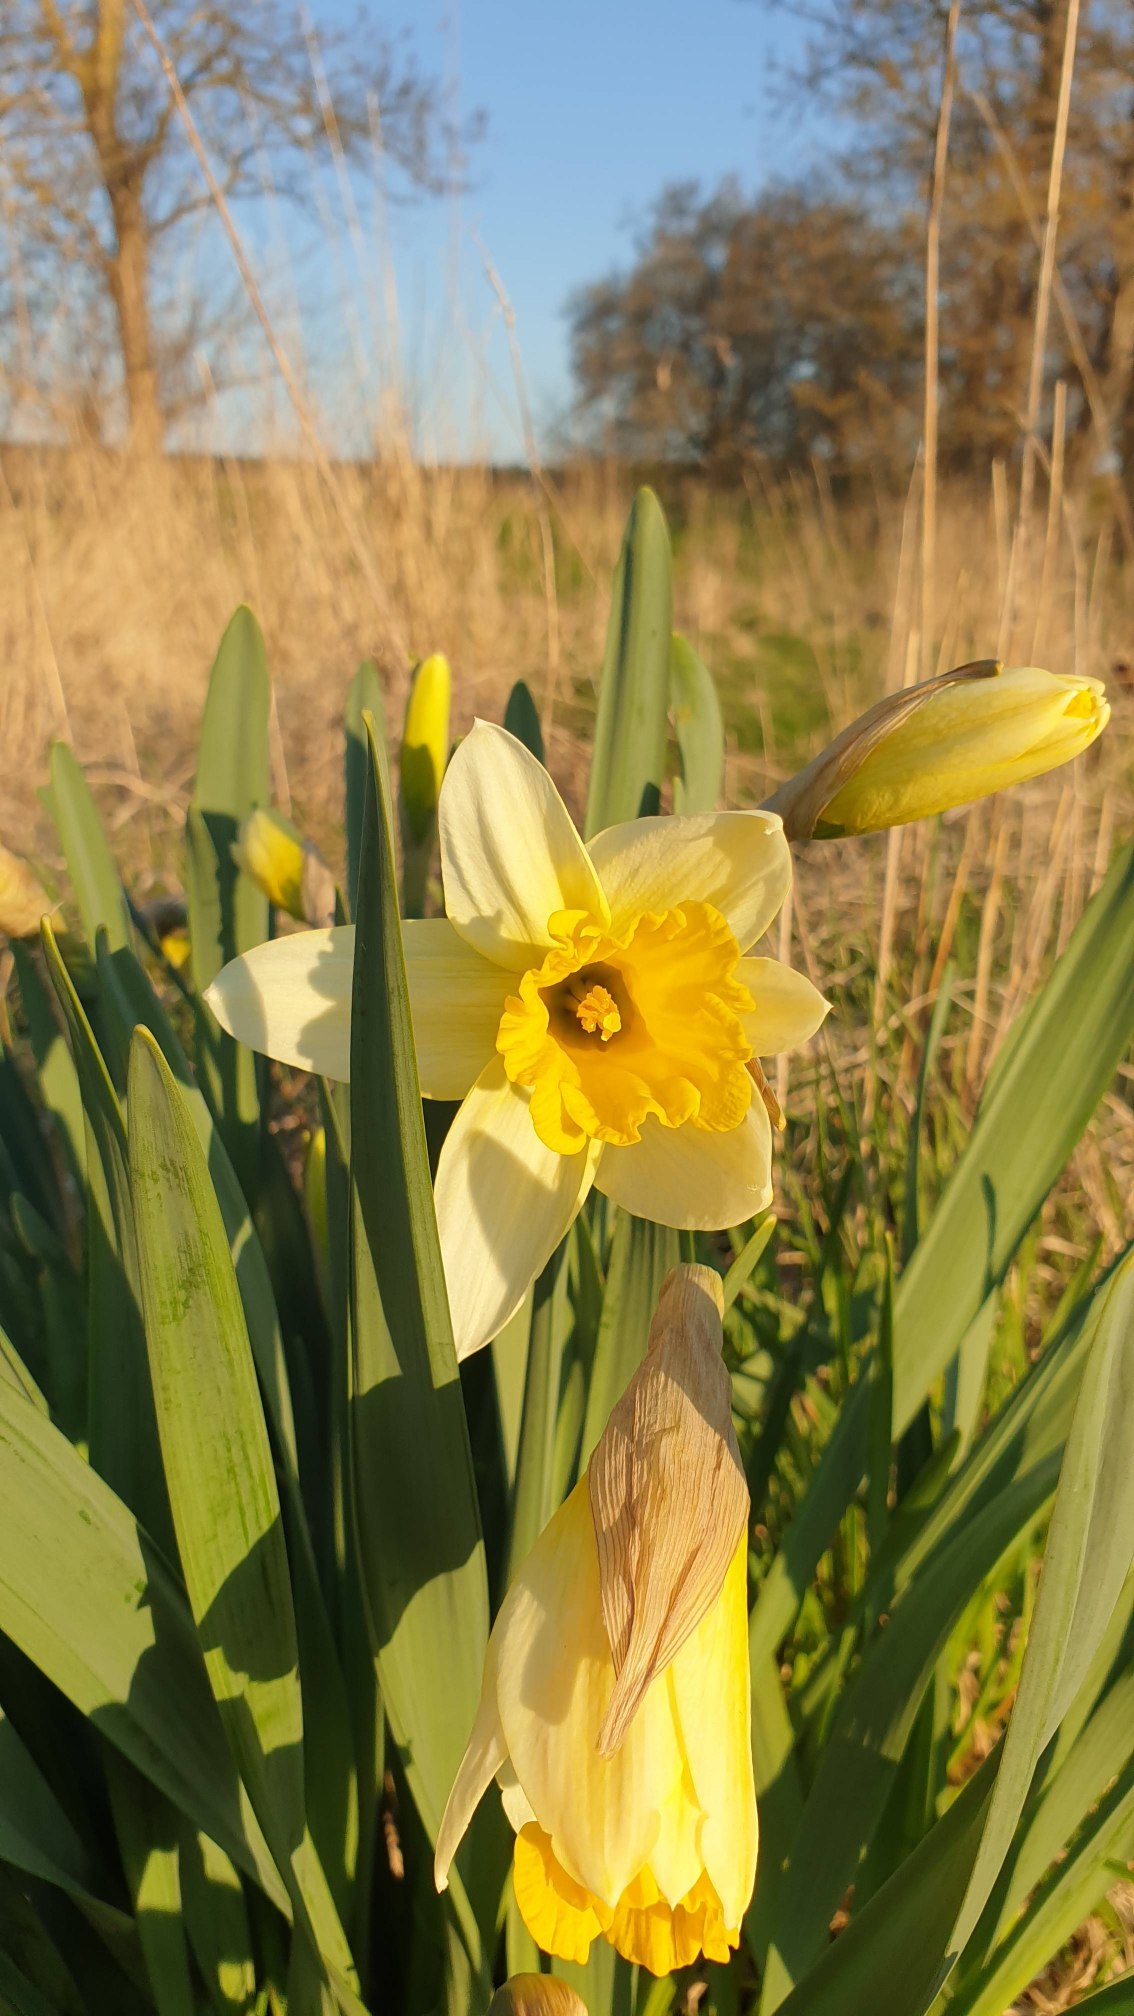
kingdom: Plantae
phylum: Tracheophyta
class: Liliopsida
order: Asparagales
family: Amaryllidaceae
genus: Narcissus
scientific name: Narcissus pseudonarcissus
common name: Påskelilje
